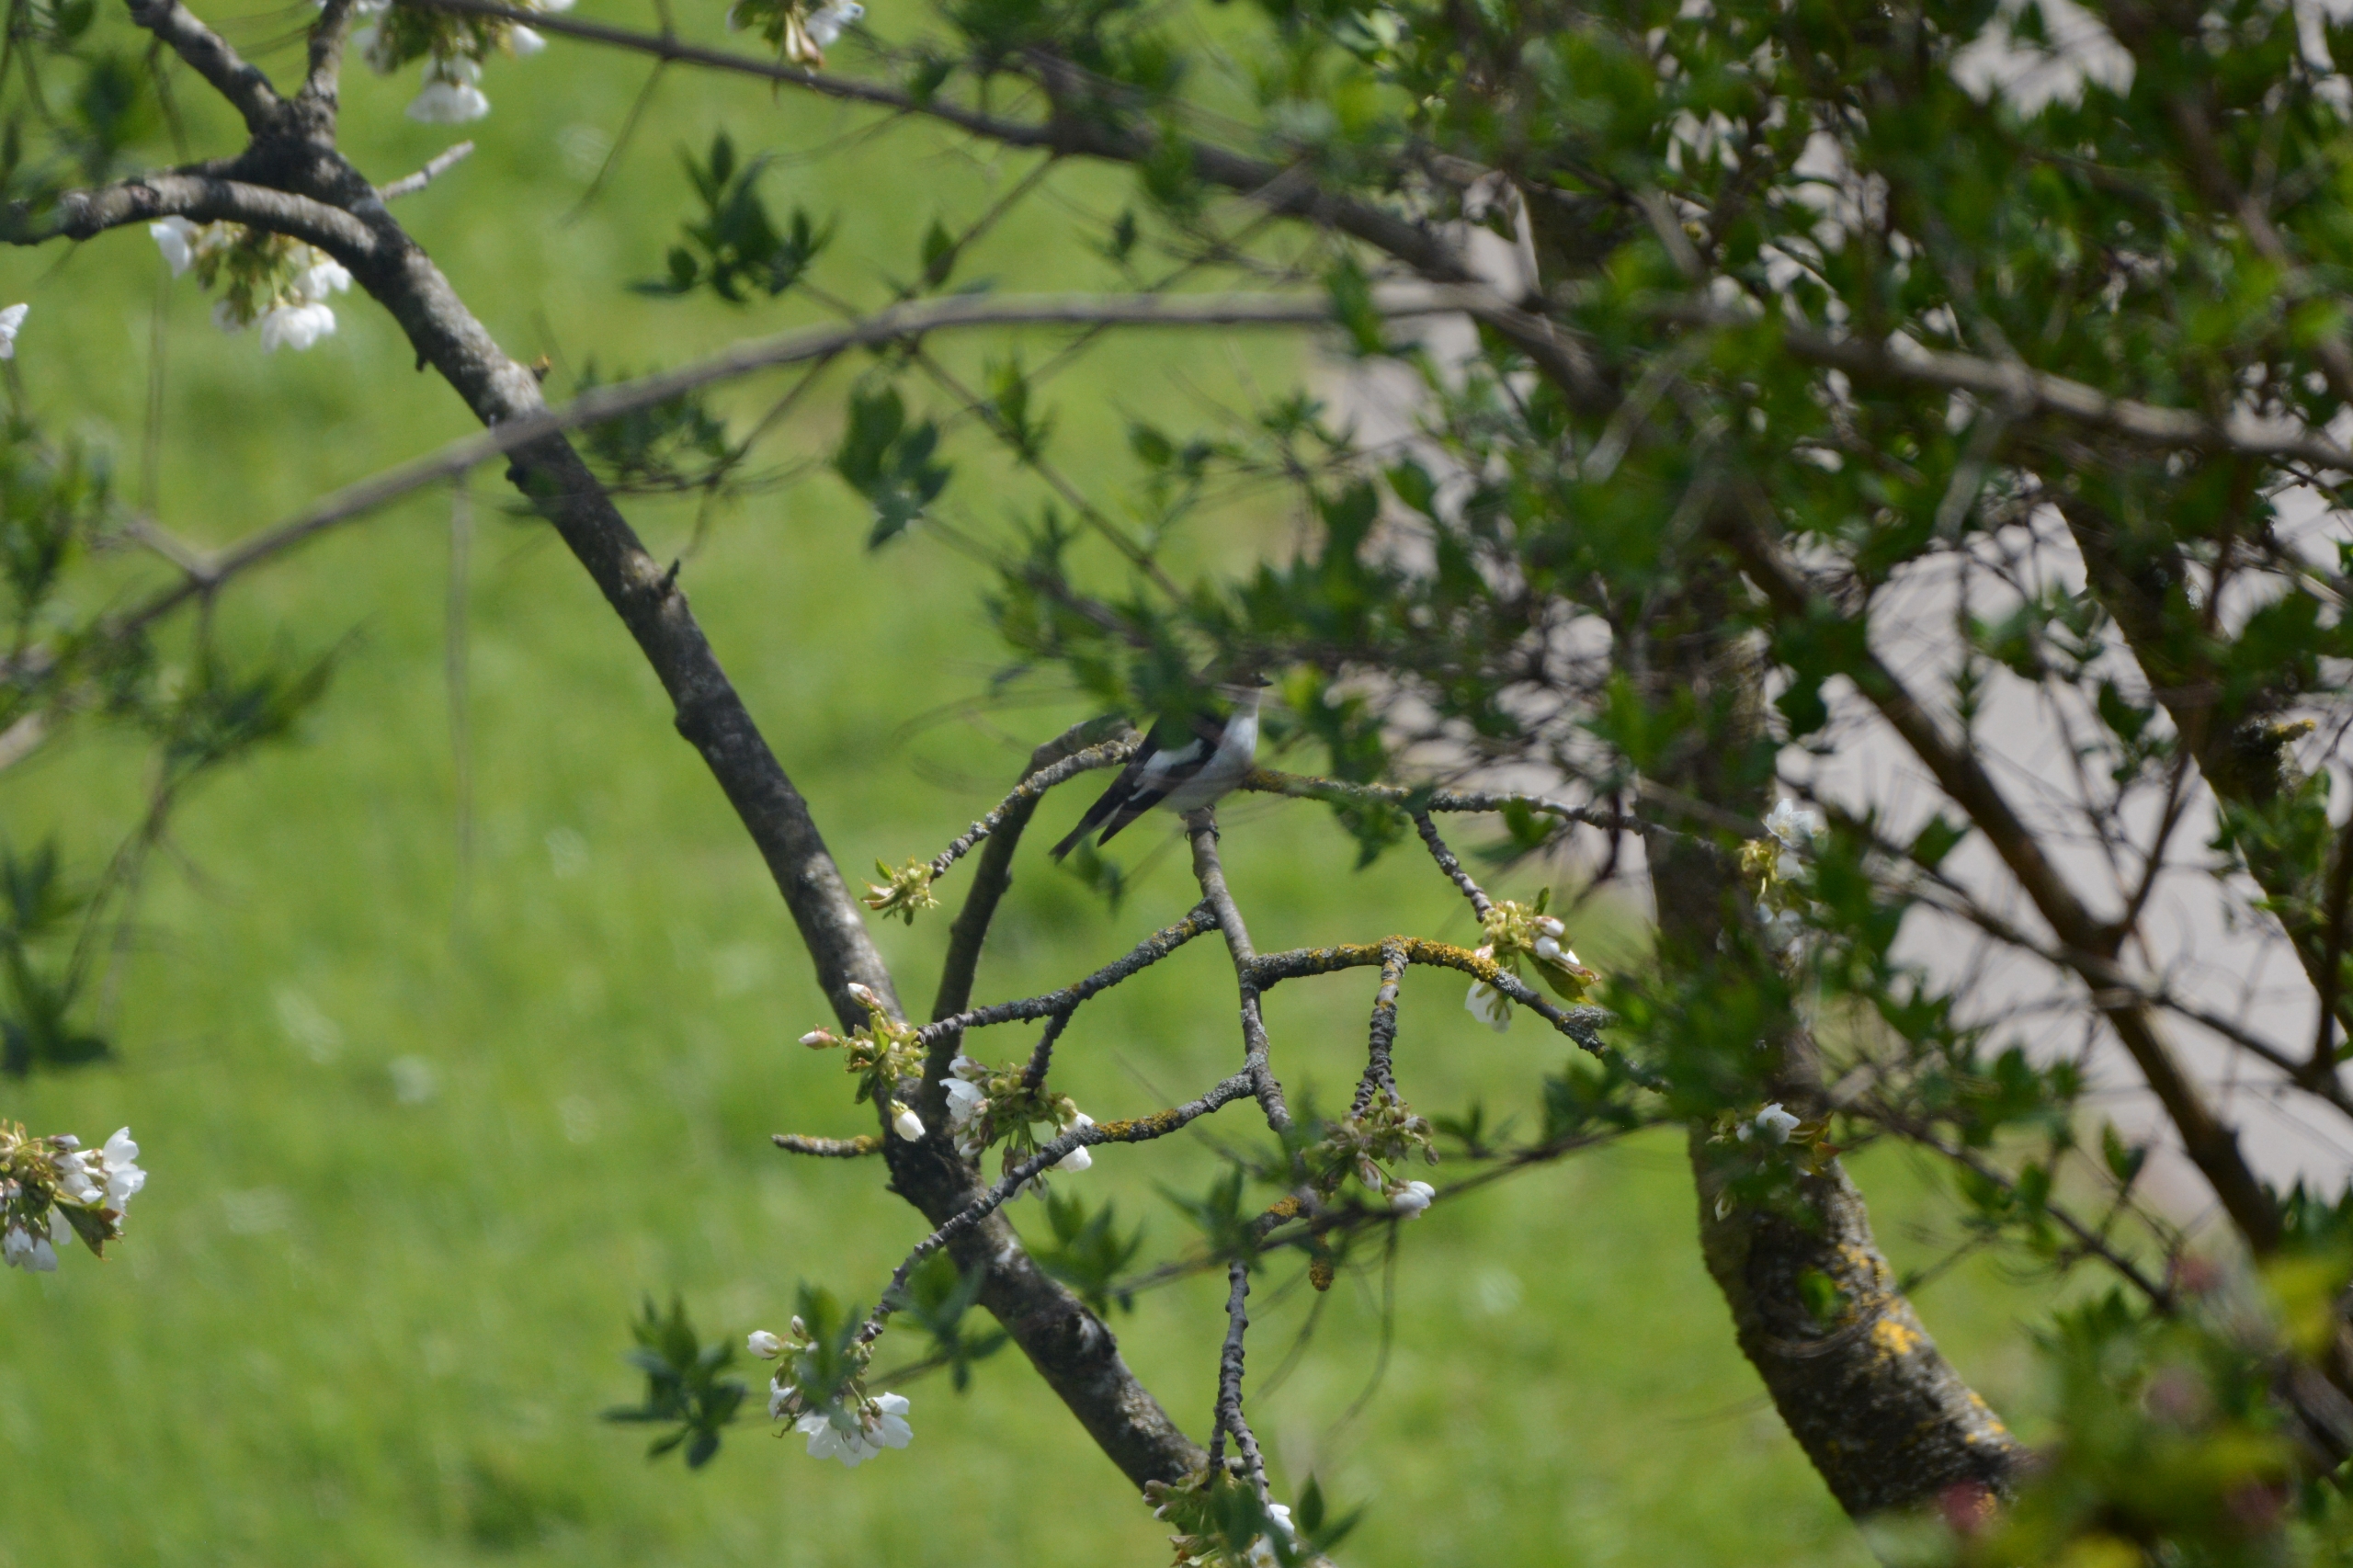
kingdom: Animalia
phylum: Chordata
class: Aves
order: Passeriformes
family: Muscicapidae
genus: Ficedula
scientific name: Ficedula hypoleuca
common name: Broget fluesnapper
